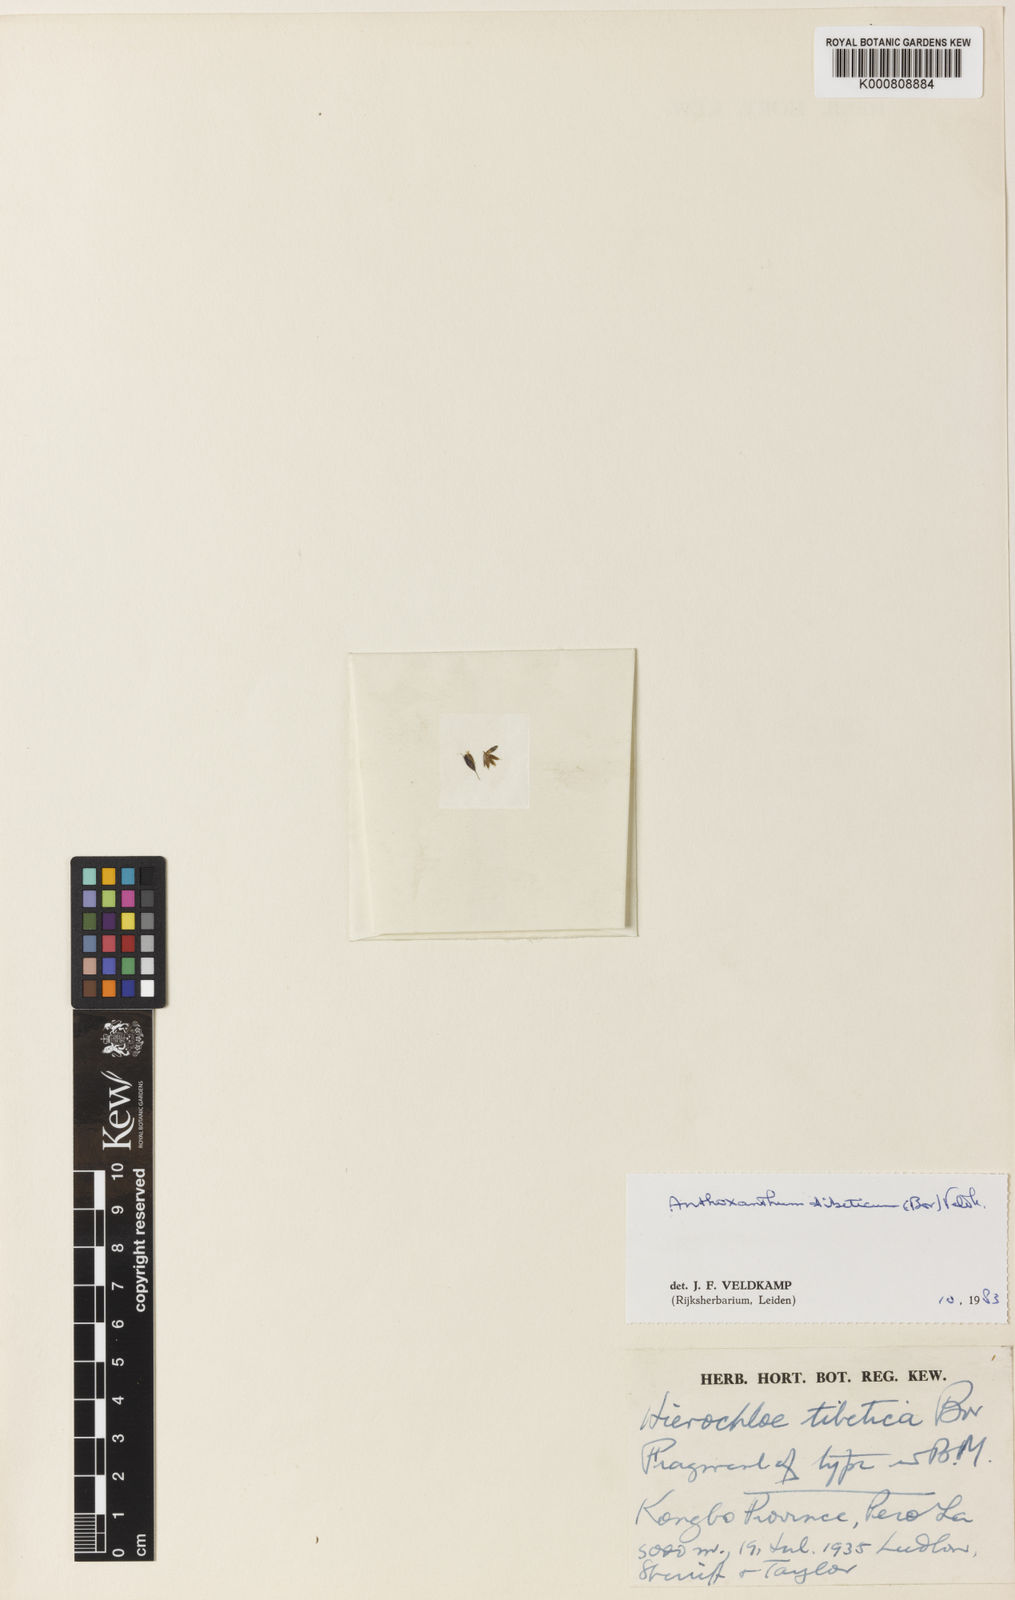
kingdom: Plantae
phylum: Tracheophyta
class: Liliopsida
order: Poales
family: Poaceae
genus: Anthoxanthum
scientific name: Anthoxanthum tibeticum
